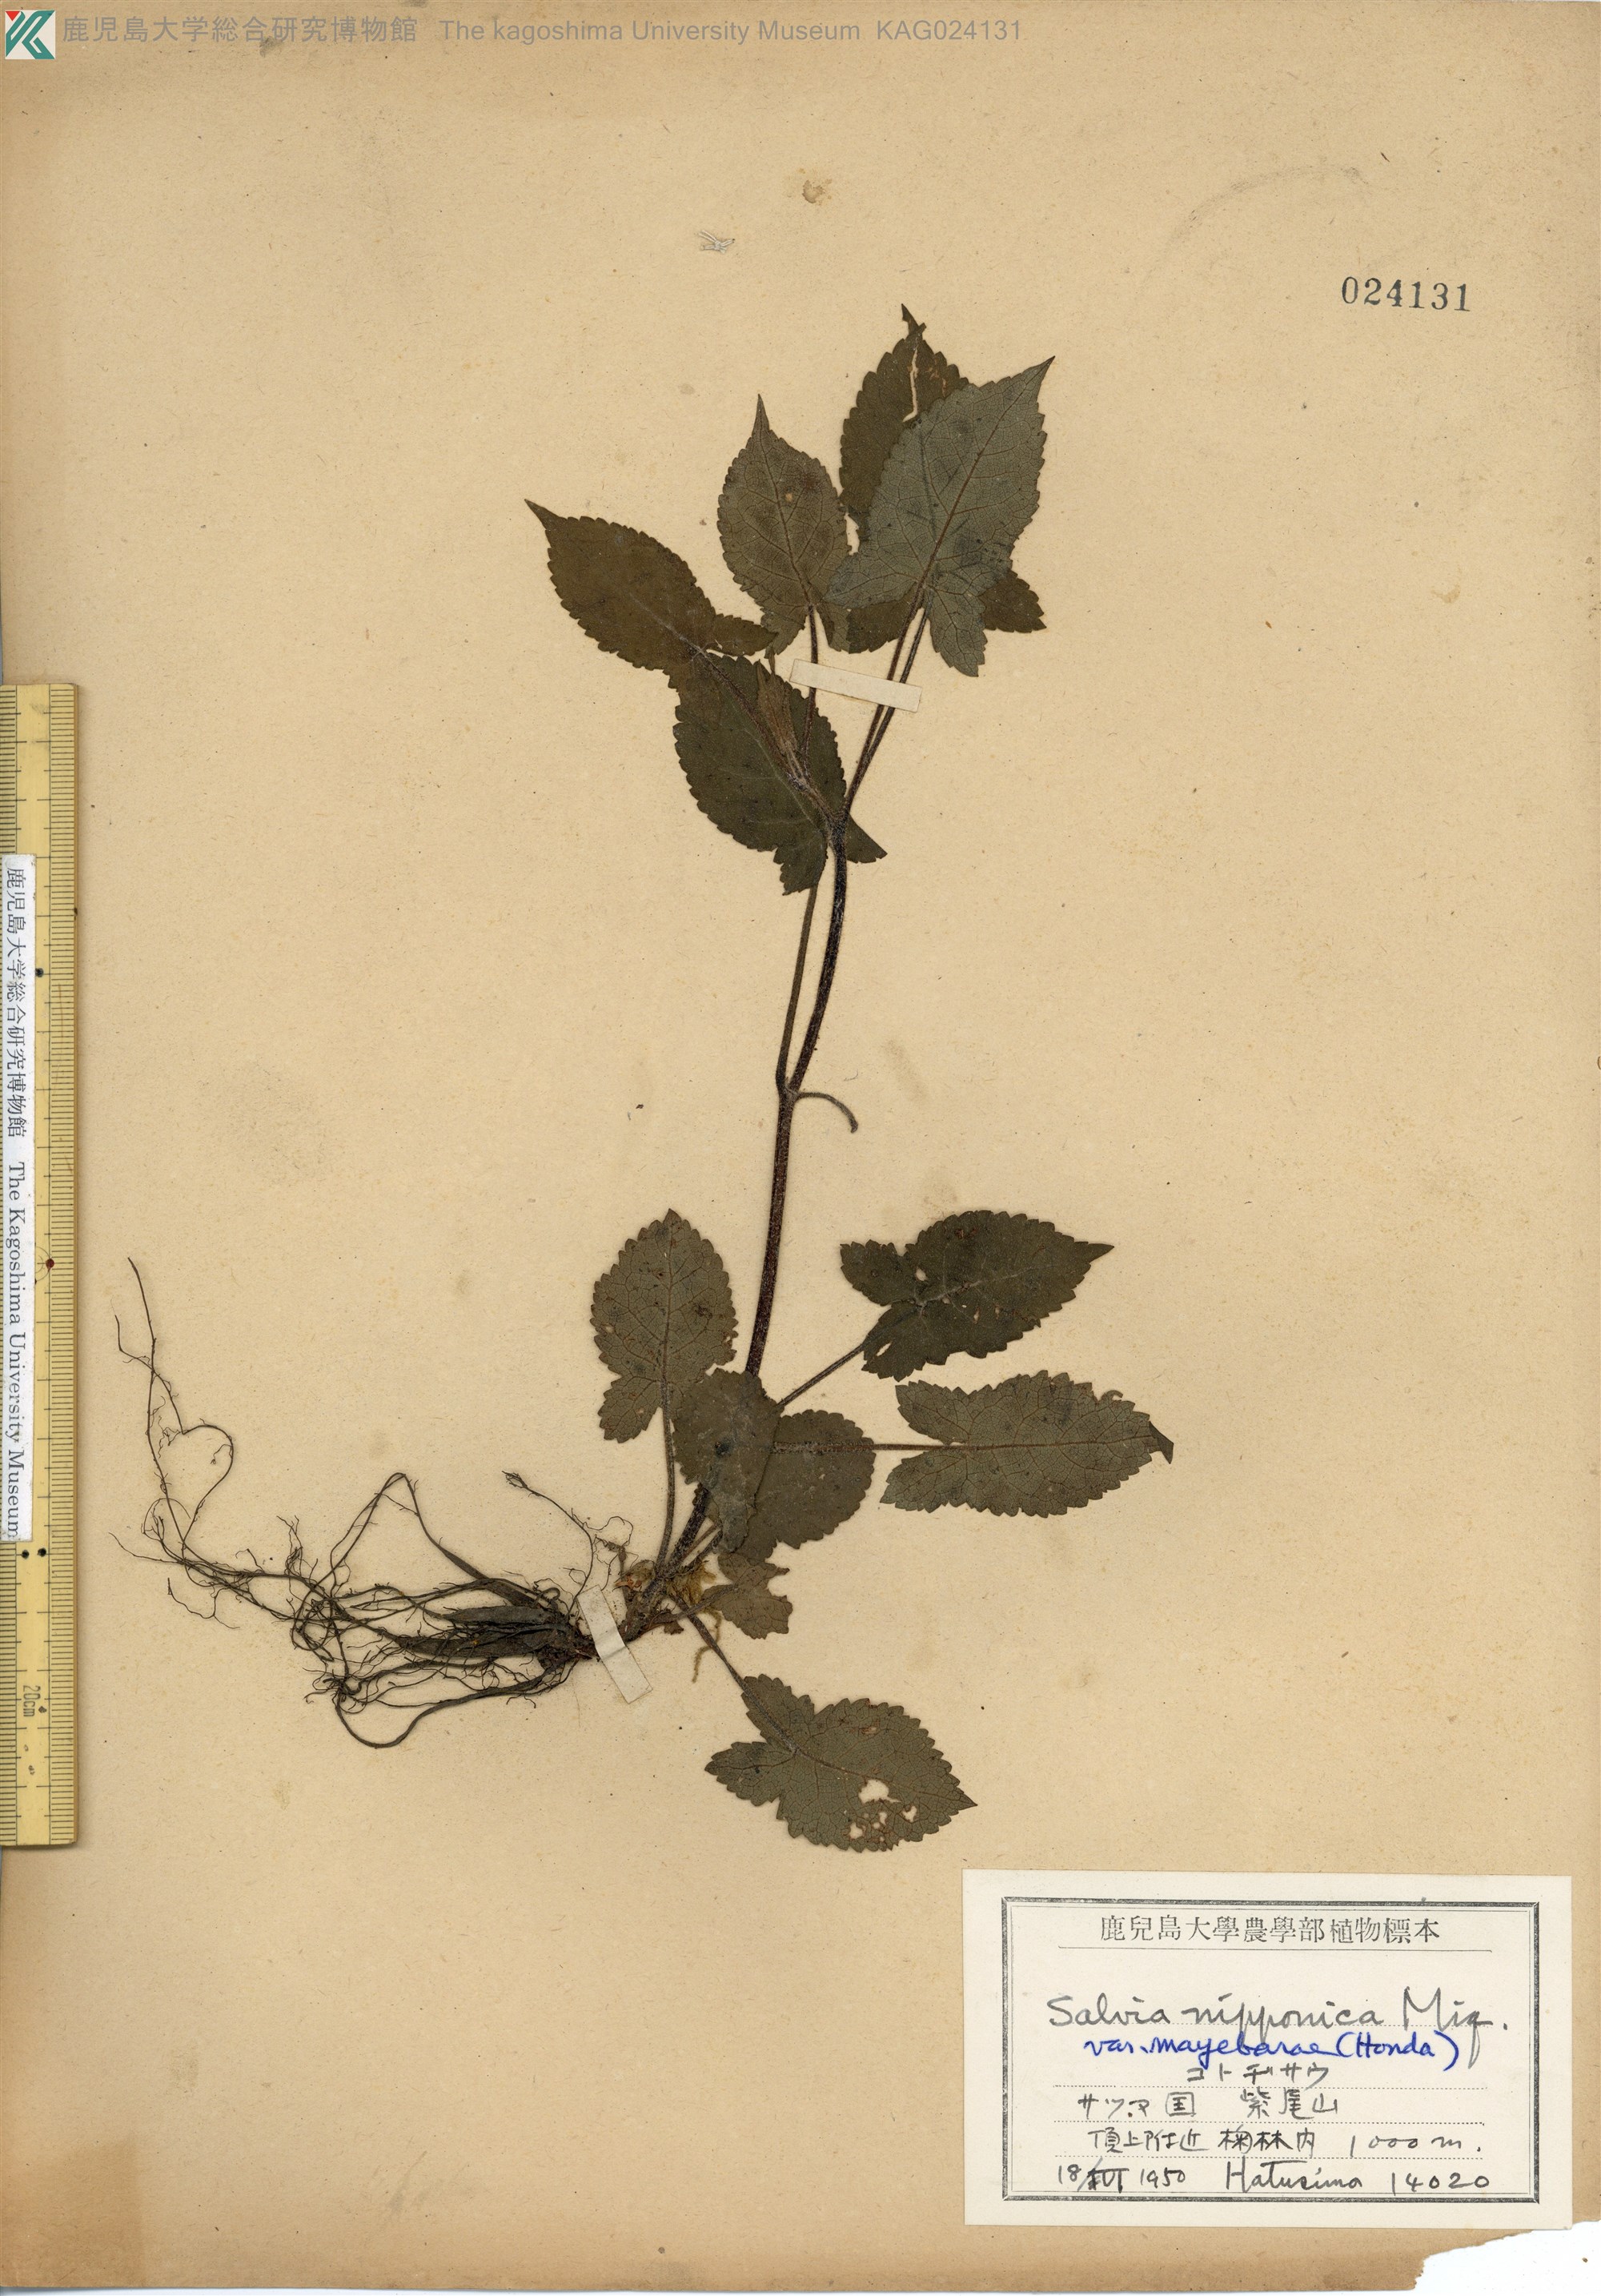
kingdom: Plantae
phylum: Tracheophyta
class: Magnoliopsida
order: Lamiales
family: Lamiaceae
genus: Salvia
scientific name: Salvia nipponica
